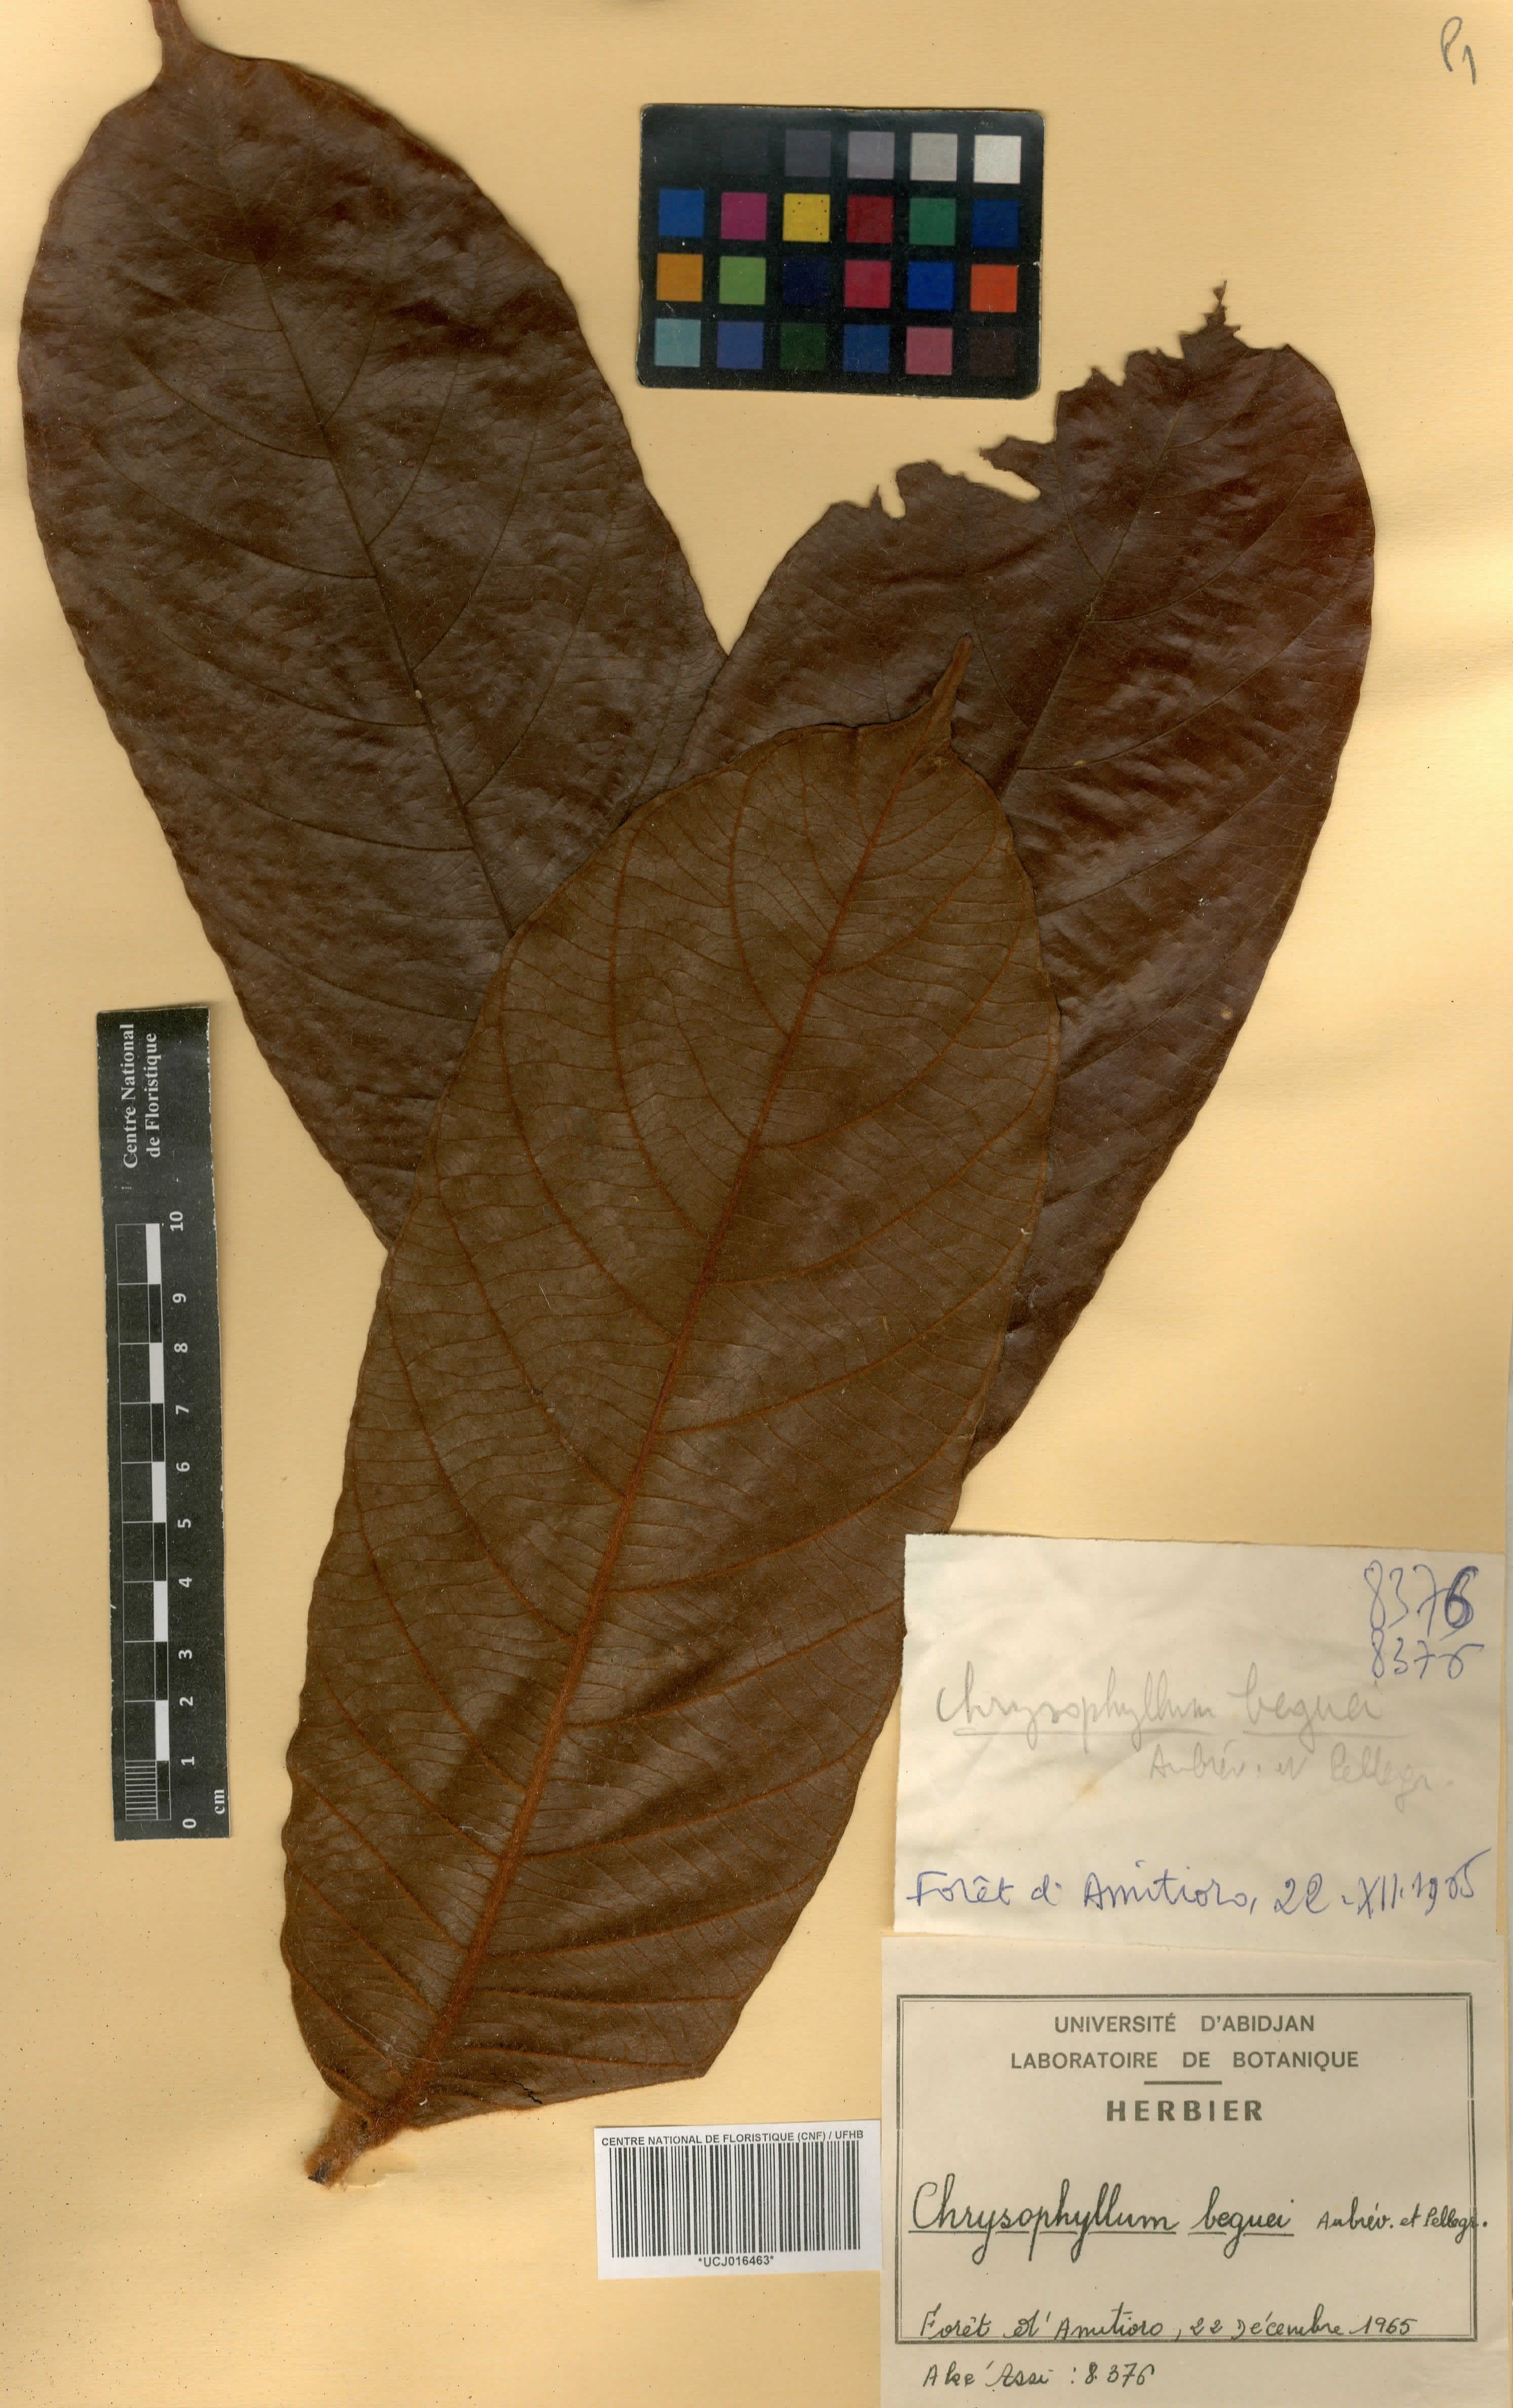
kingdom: Plantae
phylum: Tracheophyta
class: Magnoliopsida
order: Ericales
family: Sapotaceae
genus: Gambeya
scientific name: Gambeya beguei
